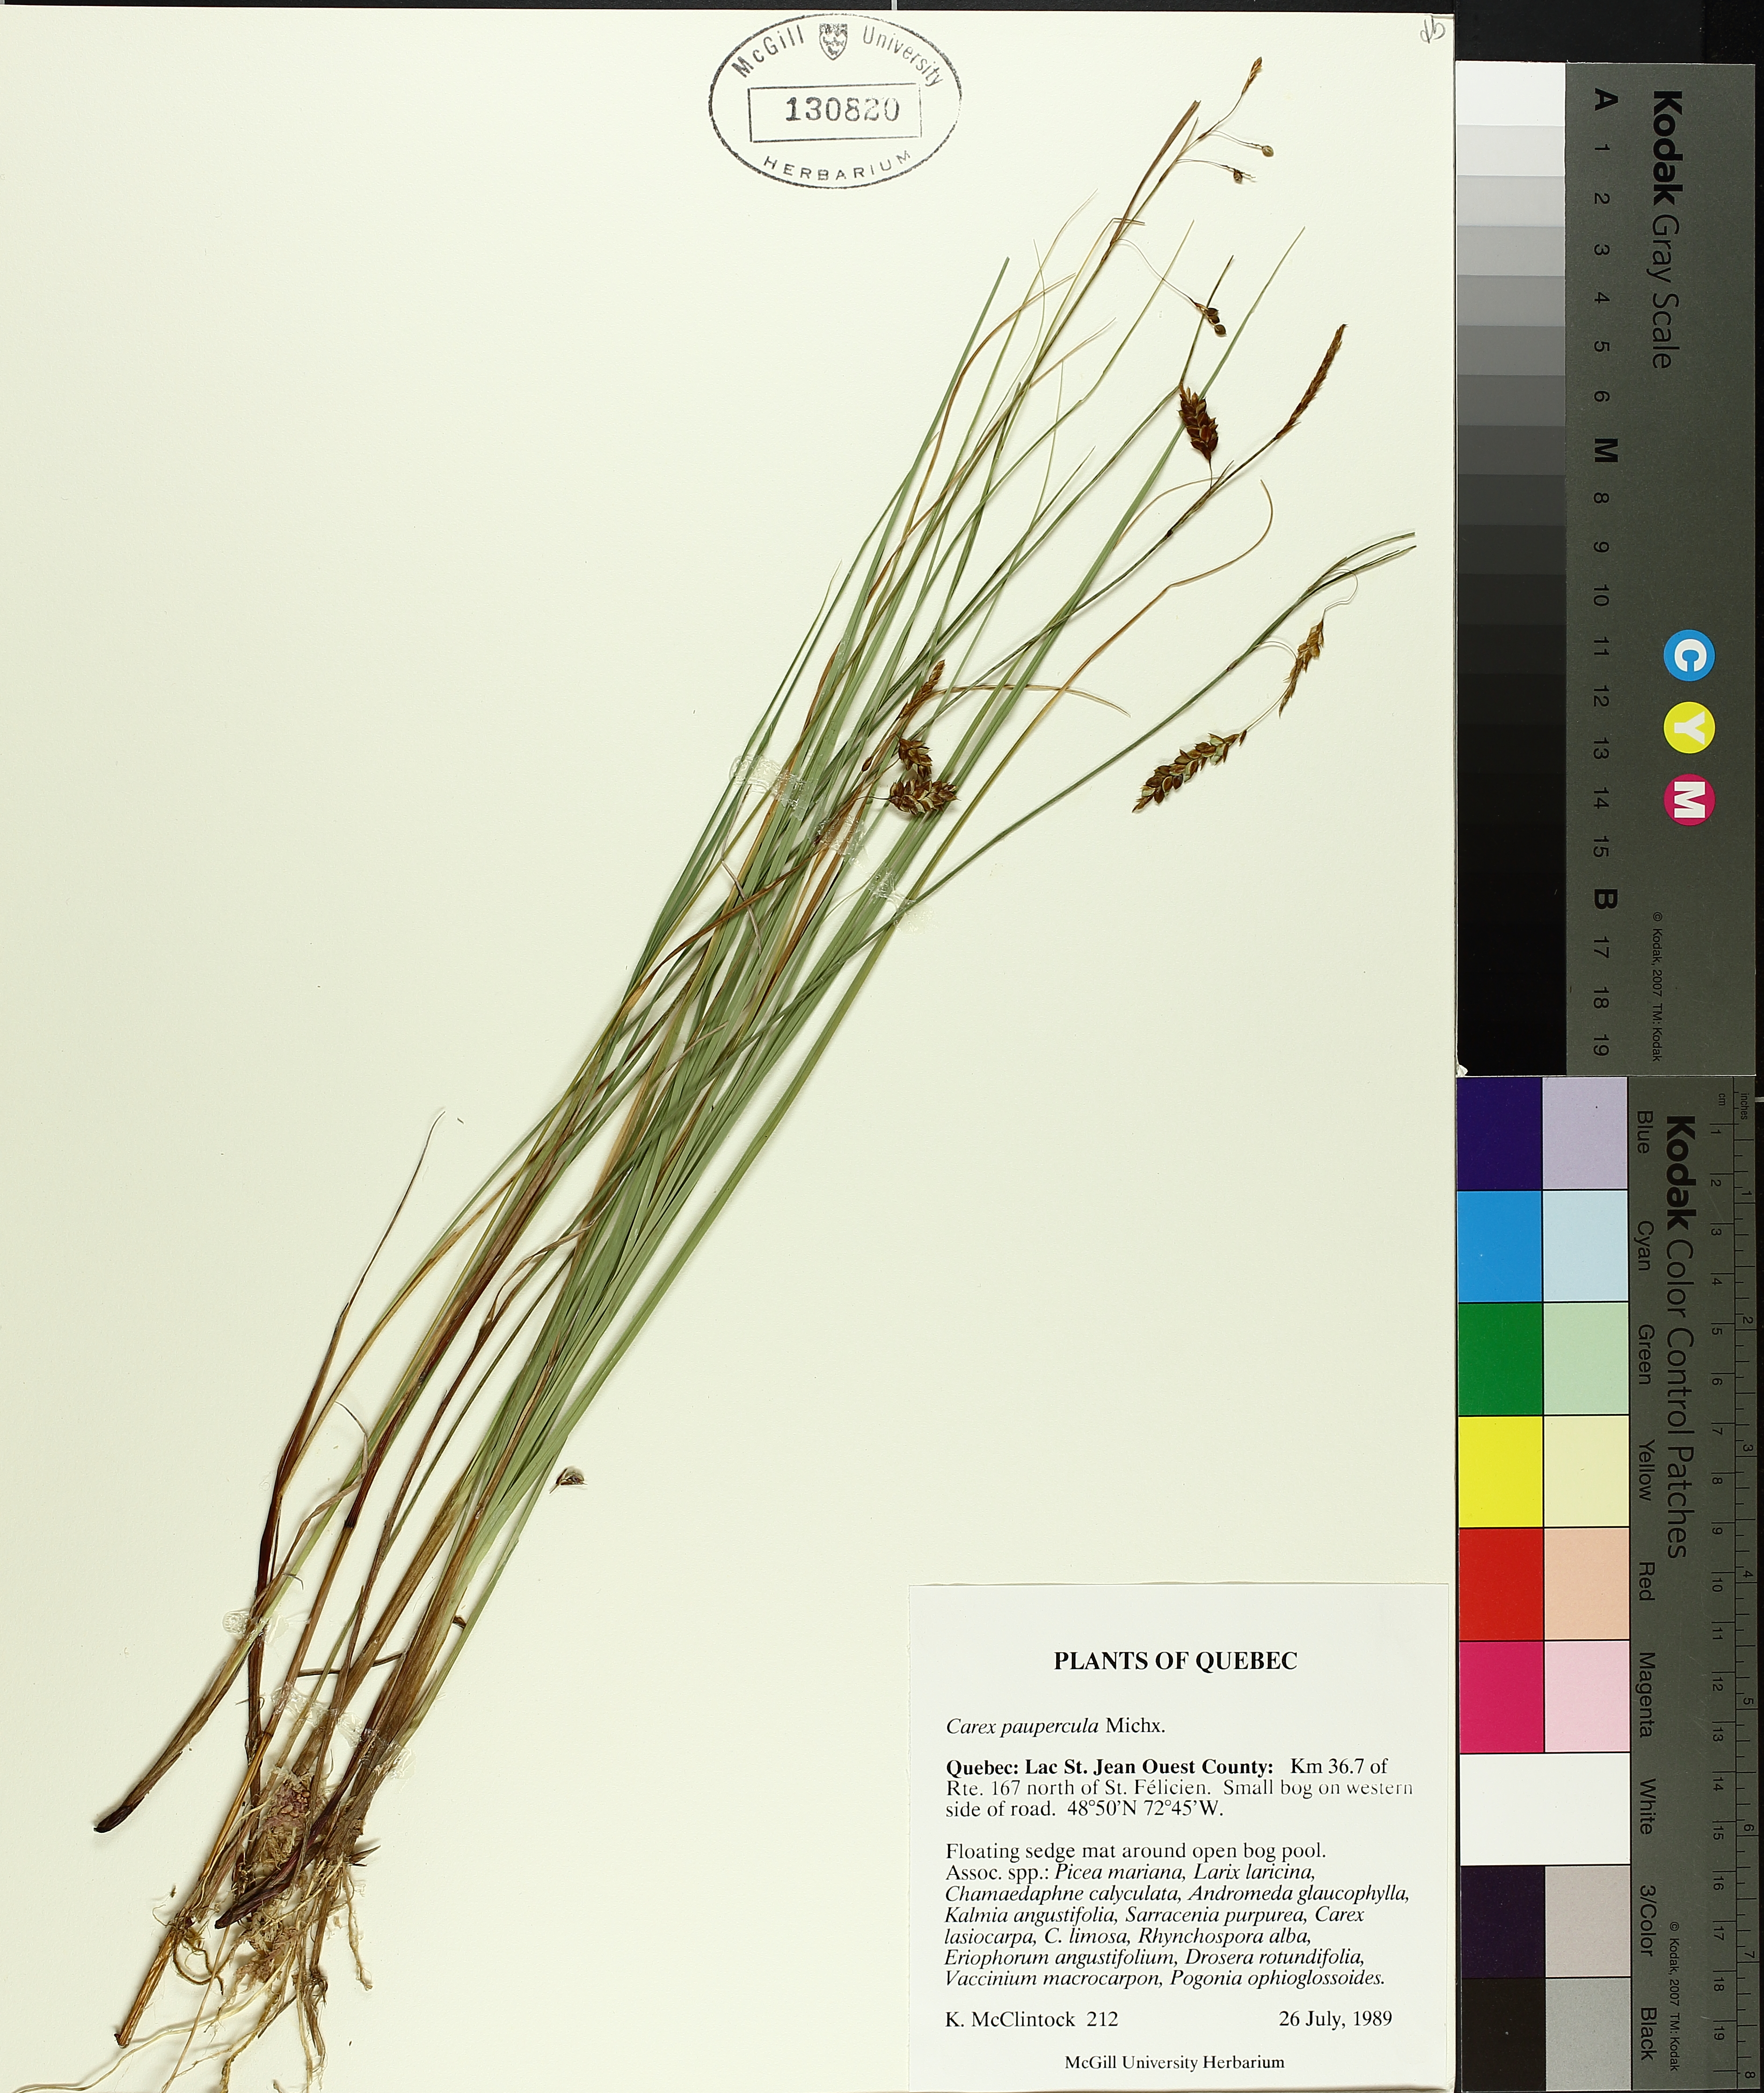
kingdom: Plantae
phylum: Tracheophyta
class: Liliopsida
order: Poales
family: Cyperaceae
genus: Carex
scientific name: Carex magellanica
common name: Bog sedge
